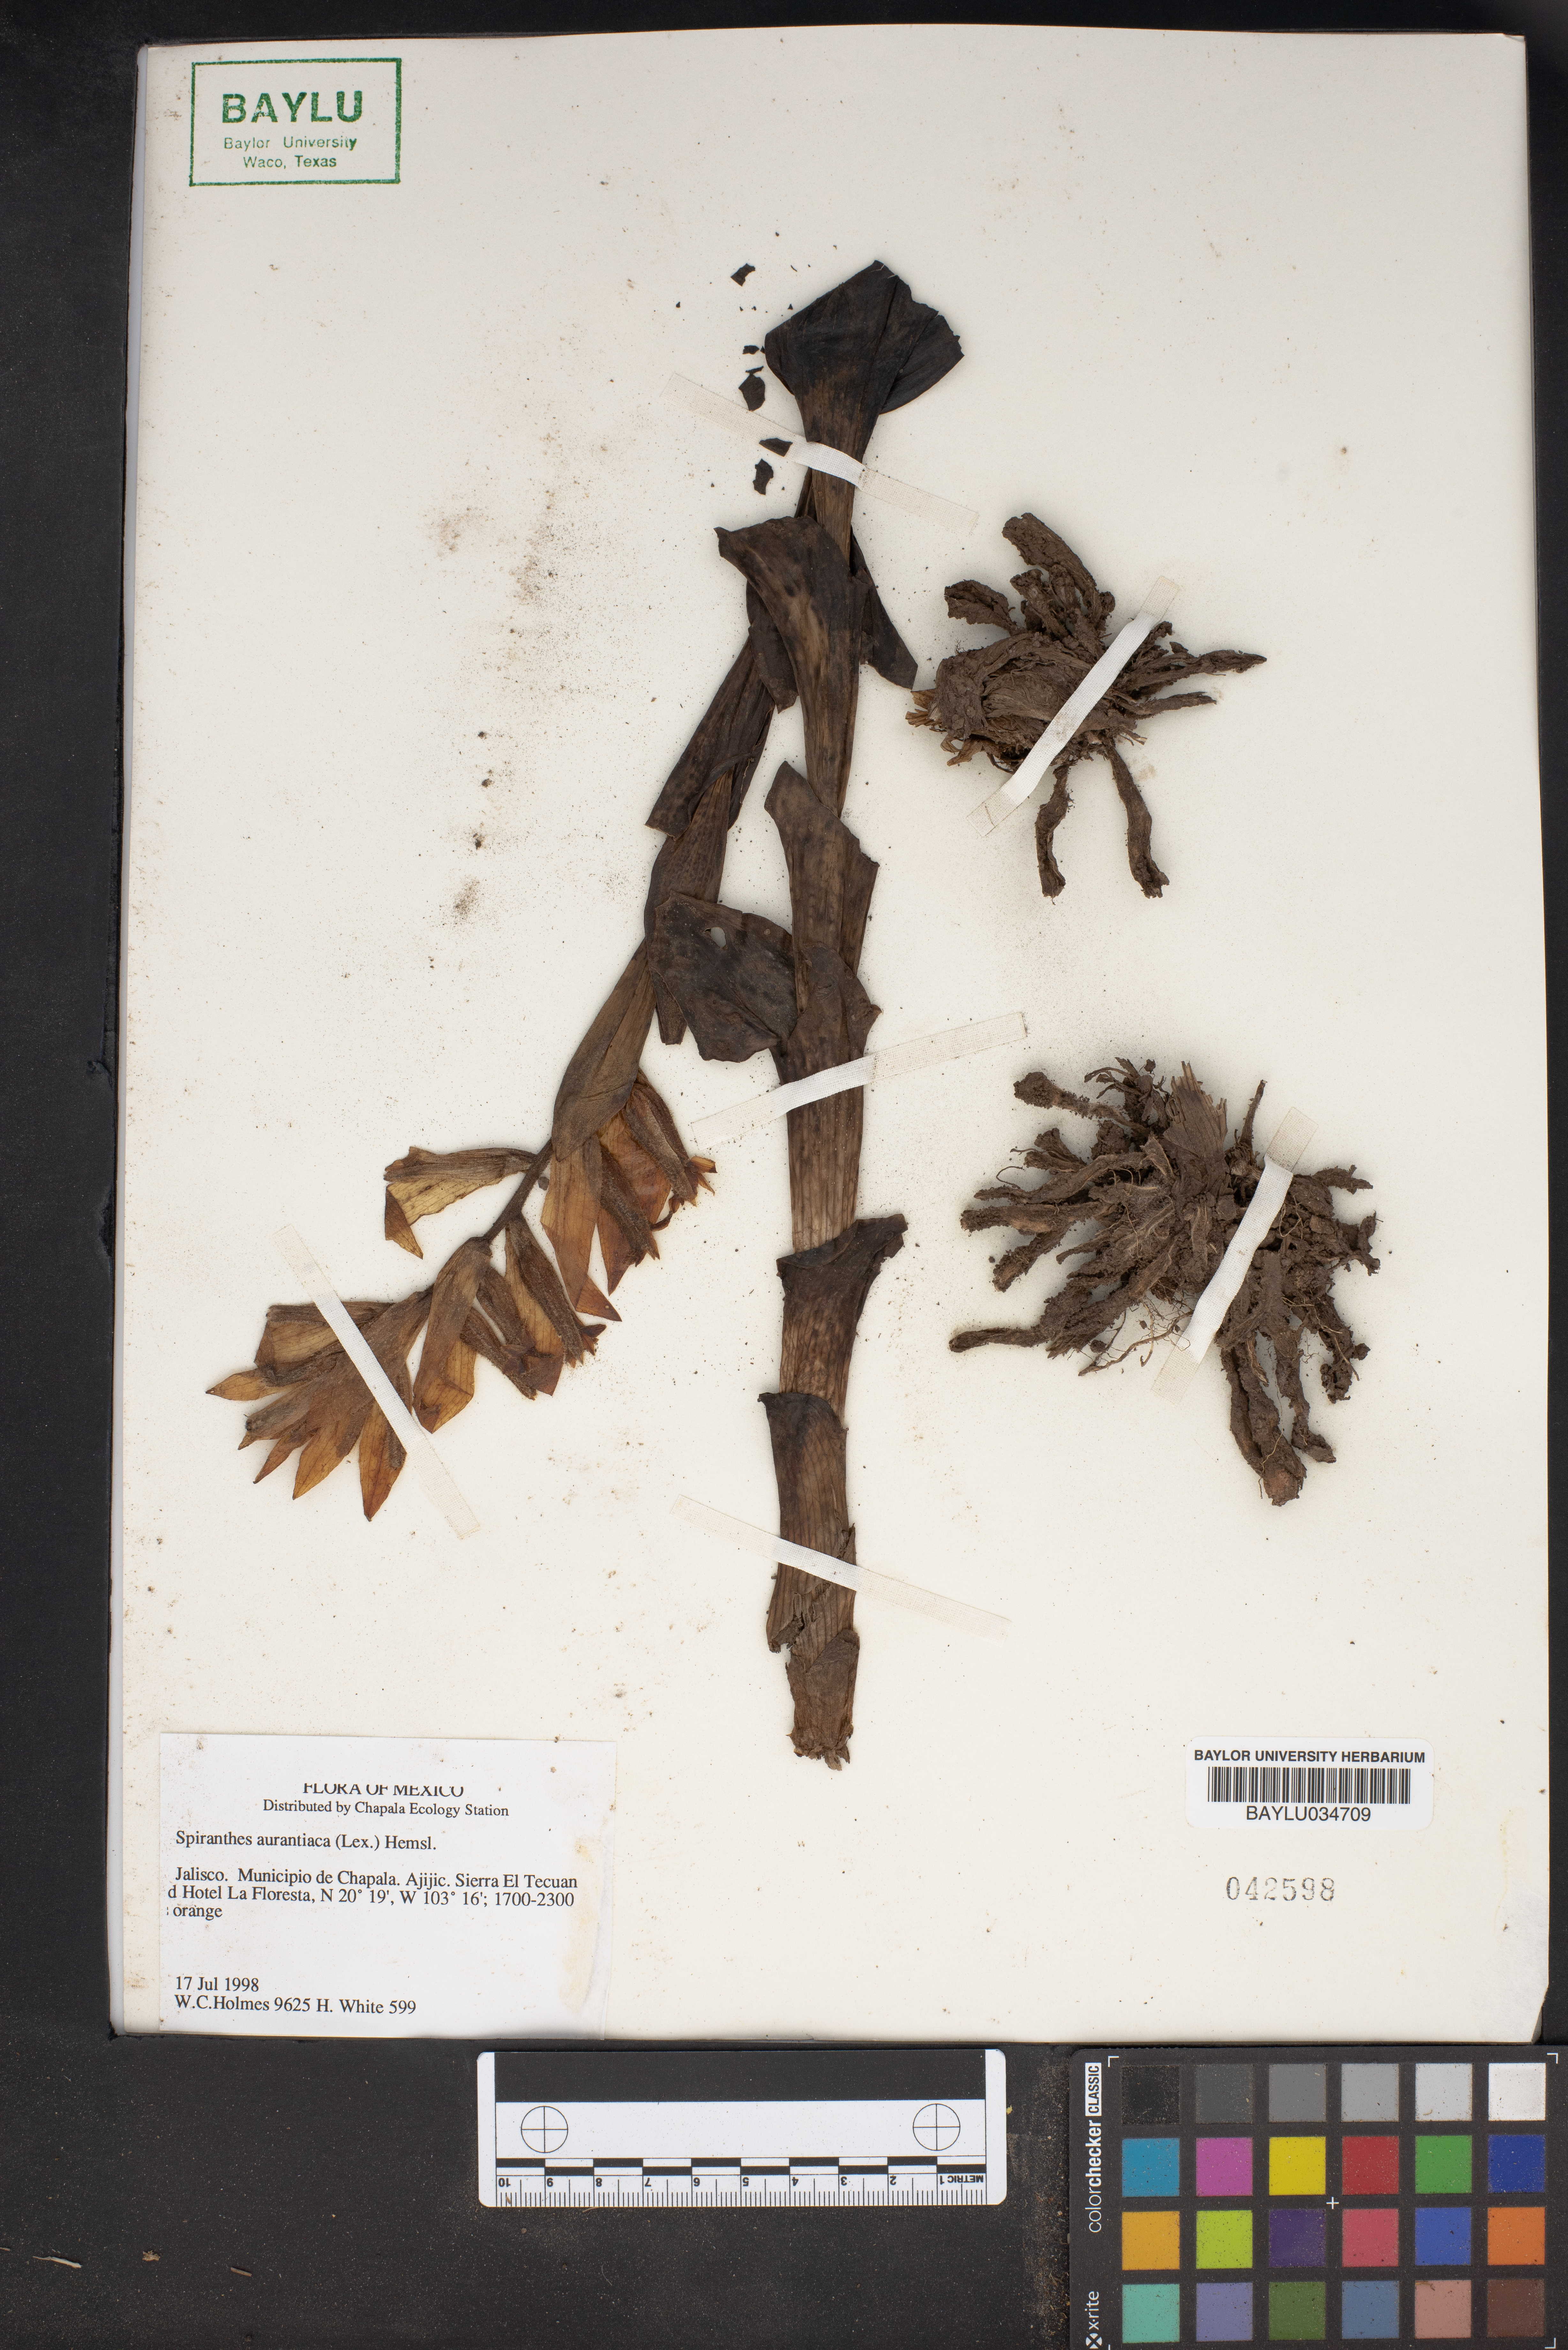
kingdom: Plantae
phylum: Tracheophyta
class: Liliopsida
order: Asparagales
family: Orchidaceae
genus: Dichromanthus
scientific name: Dichromanthus aurantiacus
